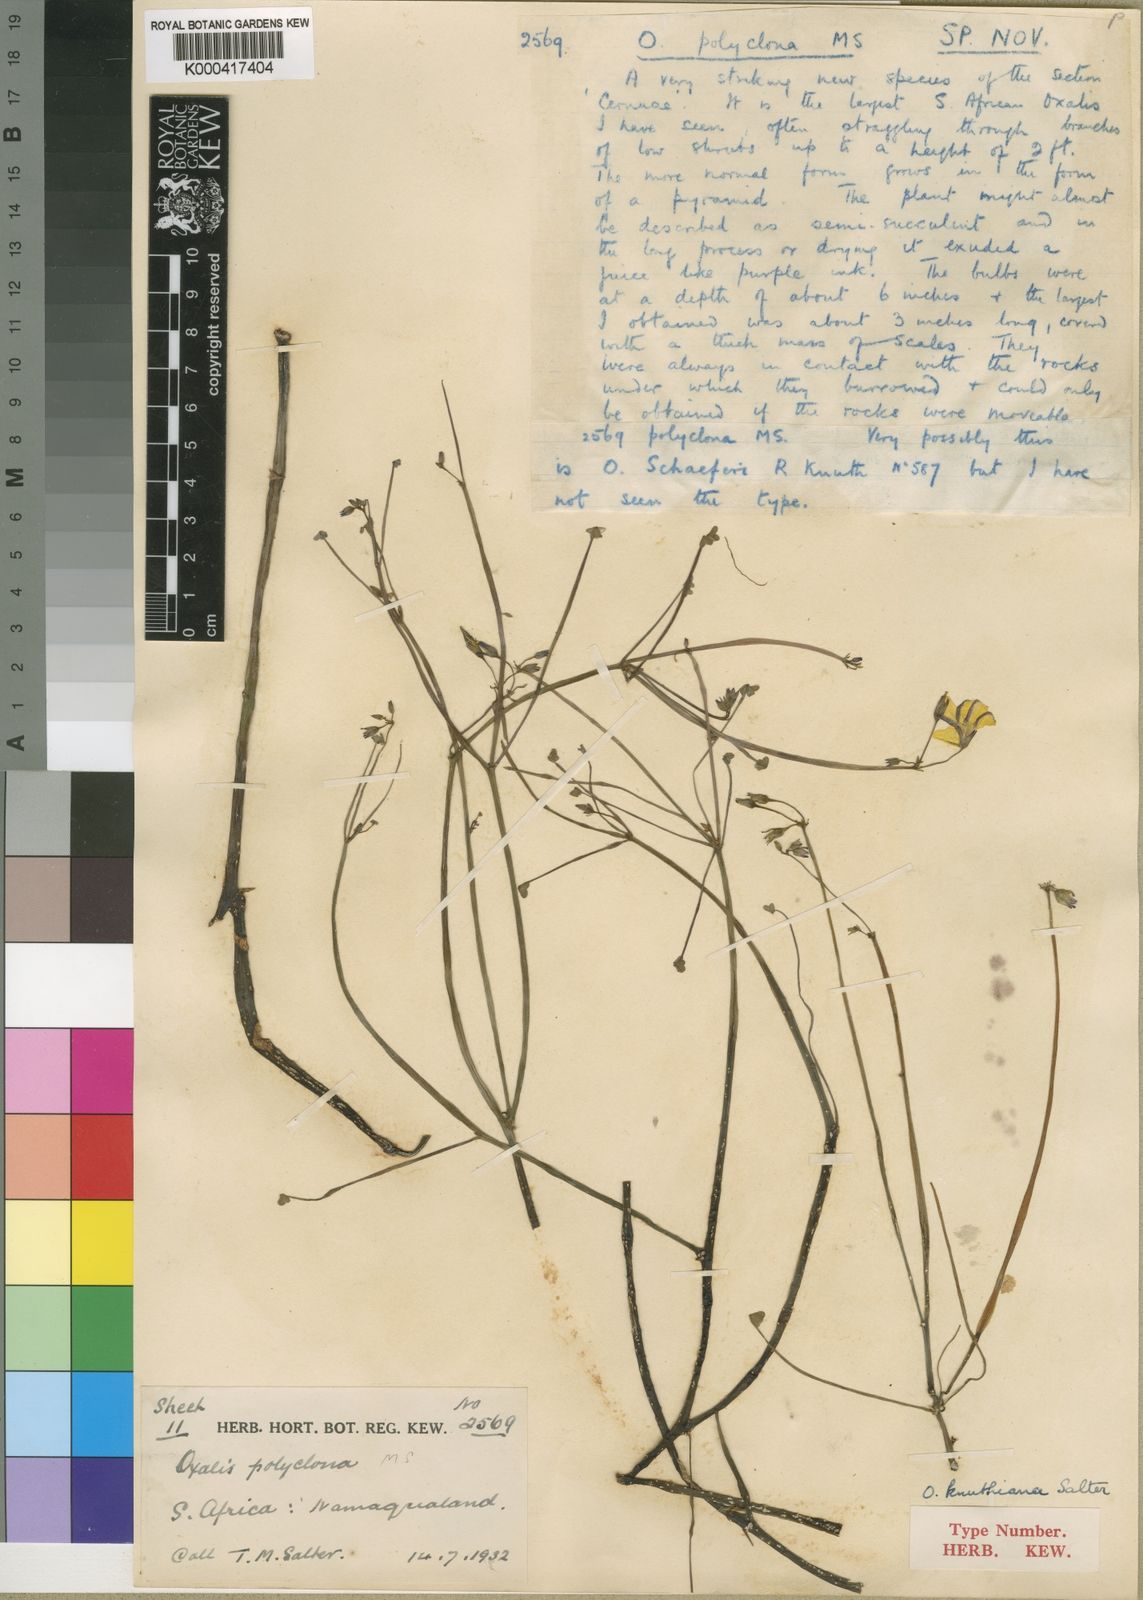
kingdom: Plantae
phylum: Tracheophyta
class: Magnoliopsida
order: Oxalidales
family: Oxalidaceae
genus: Oxalis
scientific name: Oxalis knuthiana
